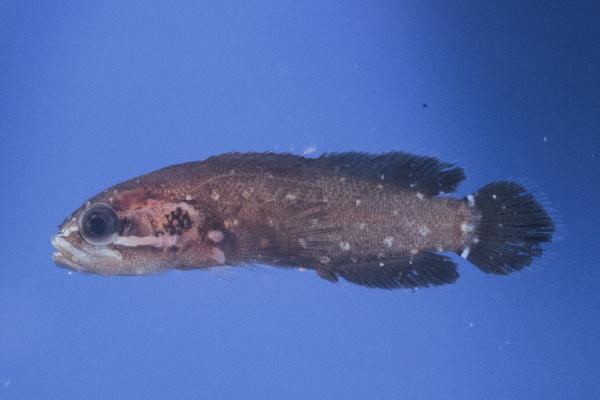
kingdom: Animalia
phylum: Chordata
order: Perciformes
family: Serranidae
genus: Pseudogramma
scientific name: Pseudogramma
